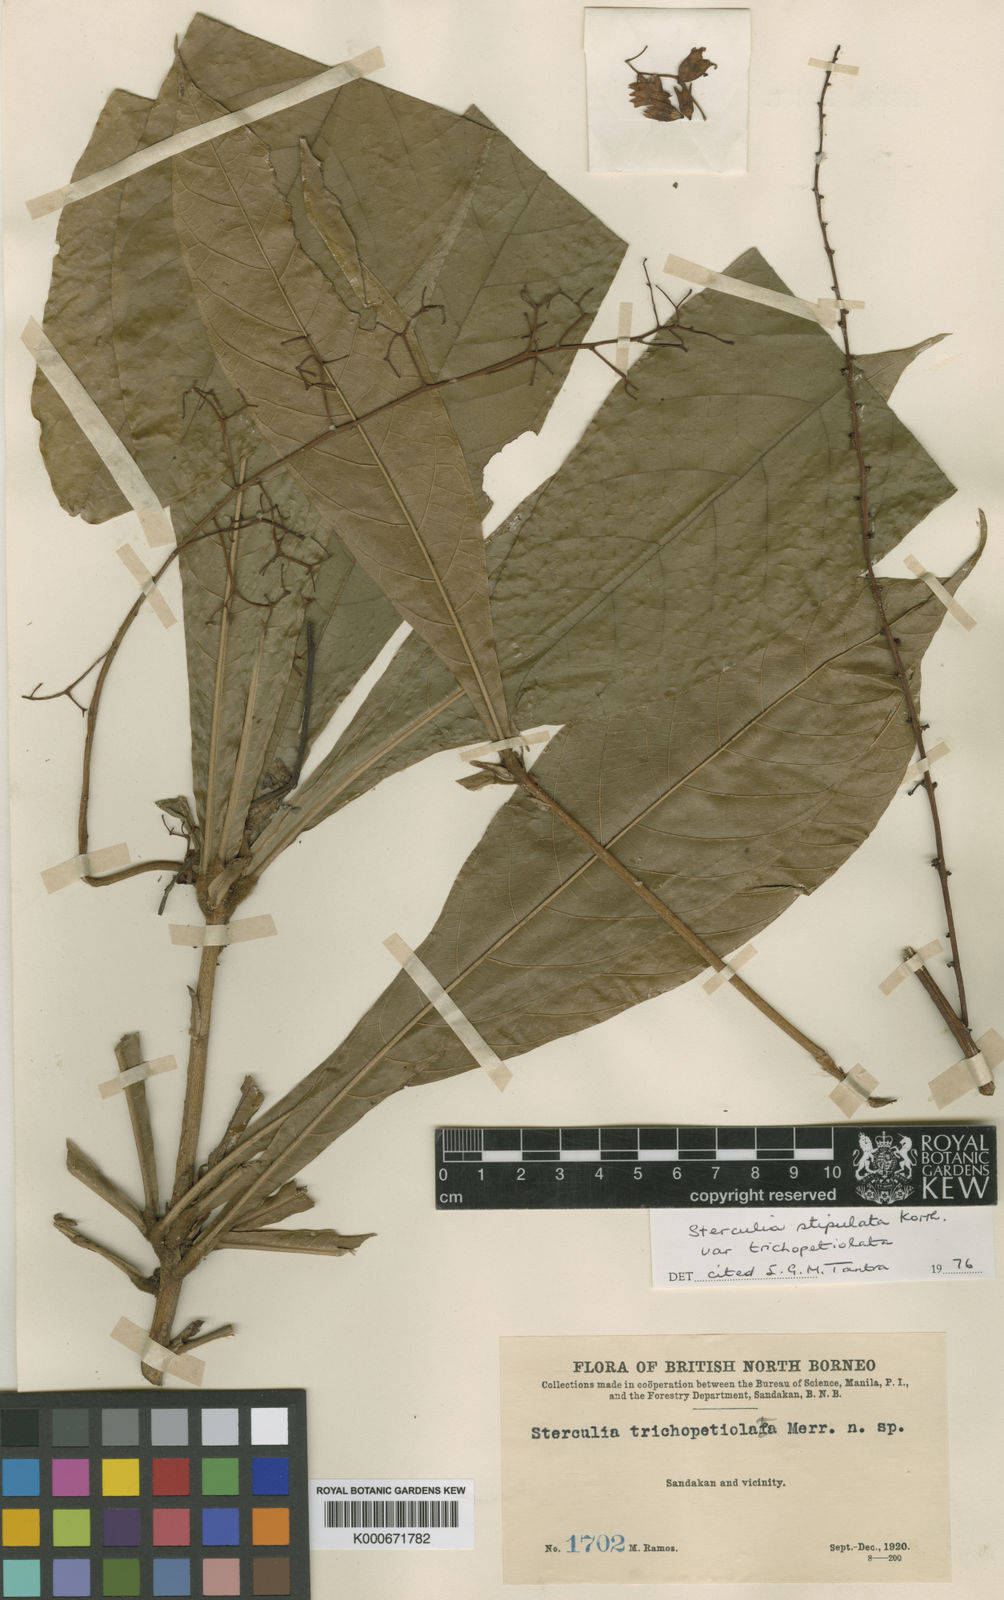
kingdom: Plantae
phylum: Tracheophyta
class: Magnoliopsida
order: Malvales
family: Malvaceae
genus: Sterculia
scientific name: Sterculia stipulata
